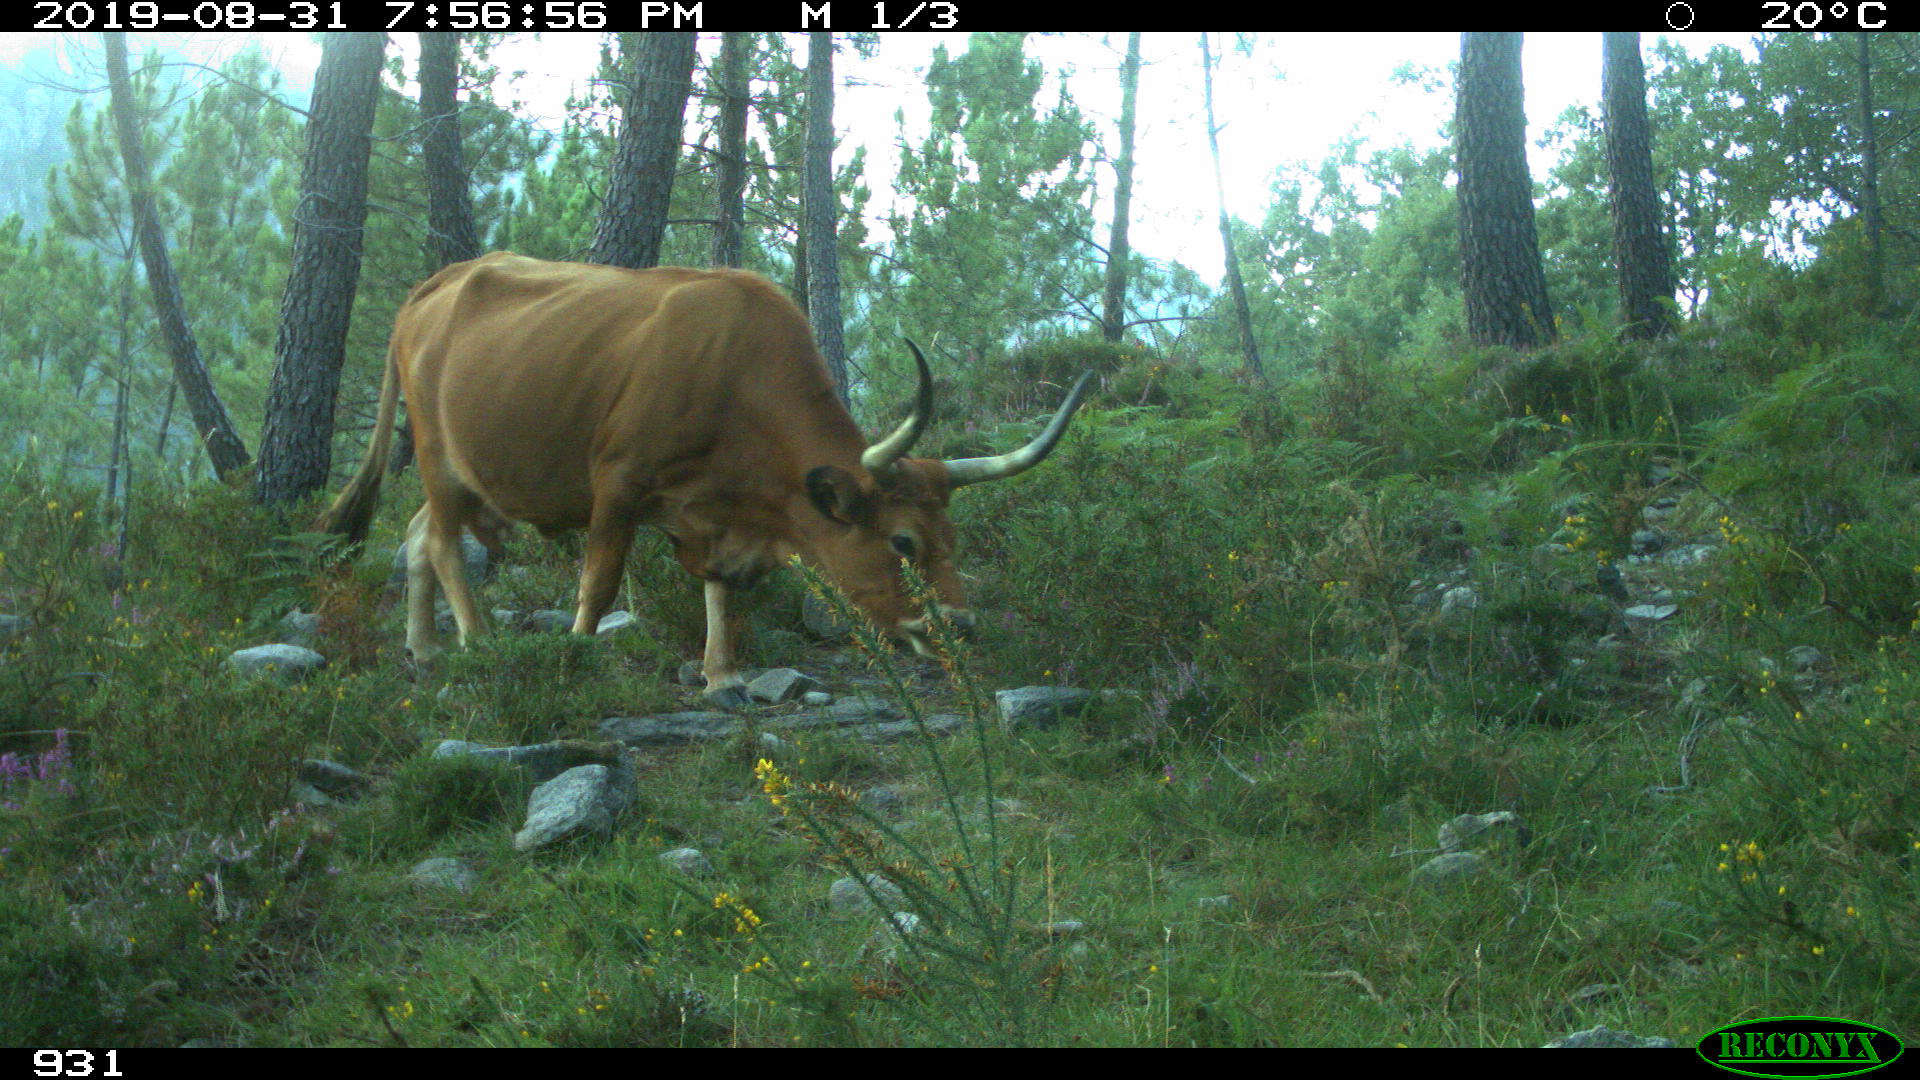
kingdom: Animalia
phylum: Chordata
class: Mammalia
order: Artiodactyla
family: Bovidae
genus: Bos
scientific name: Bos taurus
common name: Domesticated cattle
